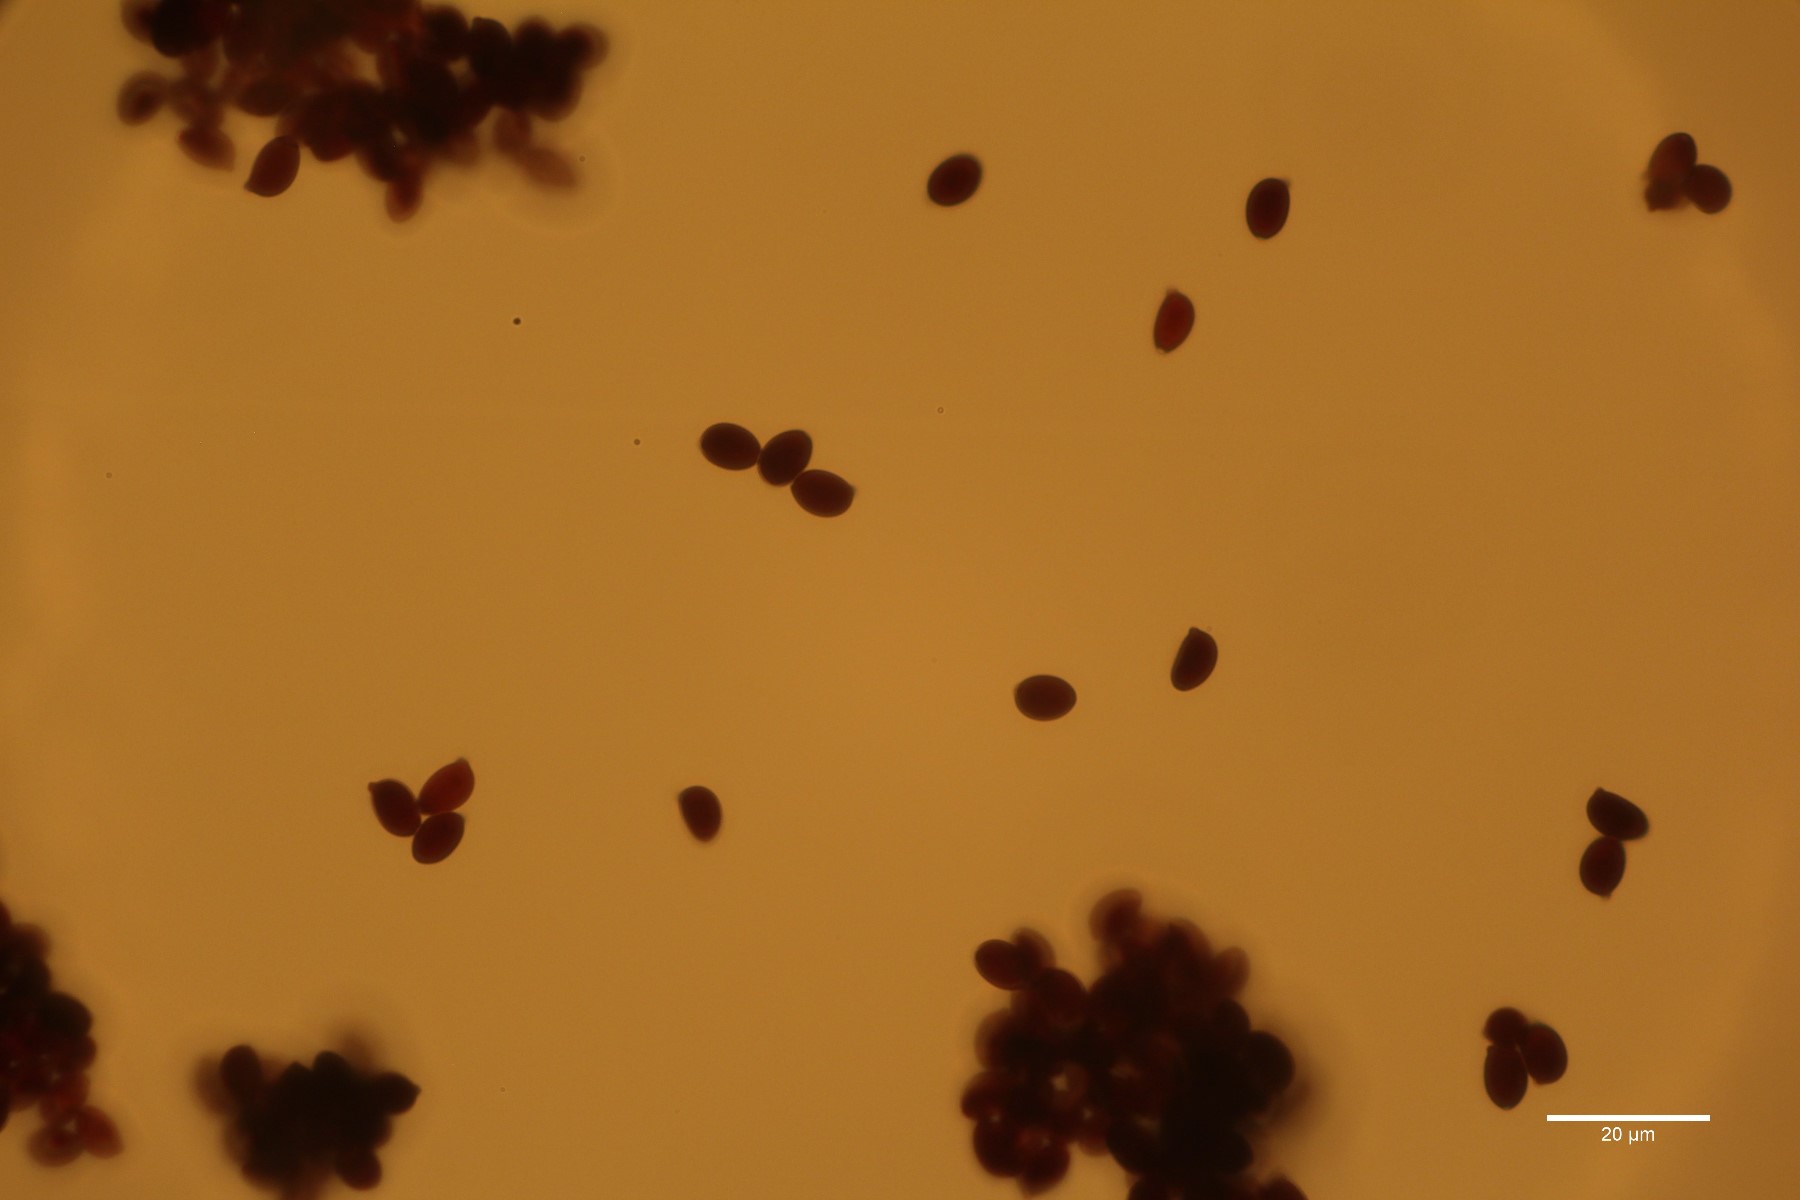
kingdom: Fungi
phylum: Basidiomycota
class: Agaricomycetes
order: Agaricales
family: Agaricaceae
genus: Leucoagaricus
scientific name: Leucoagaricus leucothites
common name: rosabladet silkehat
